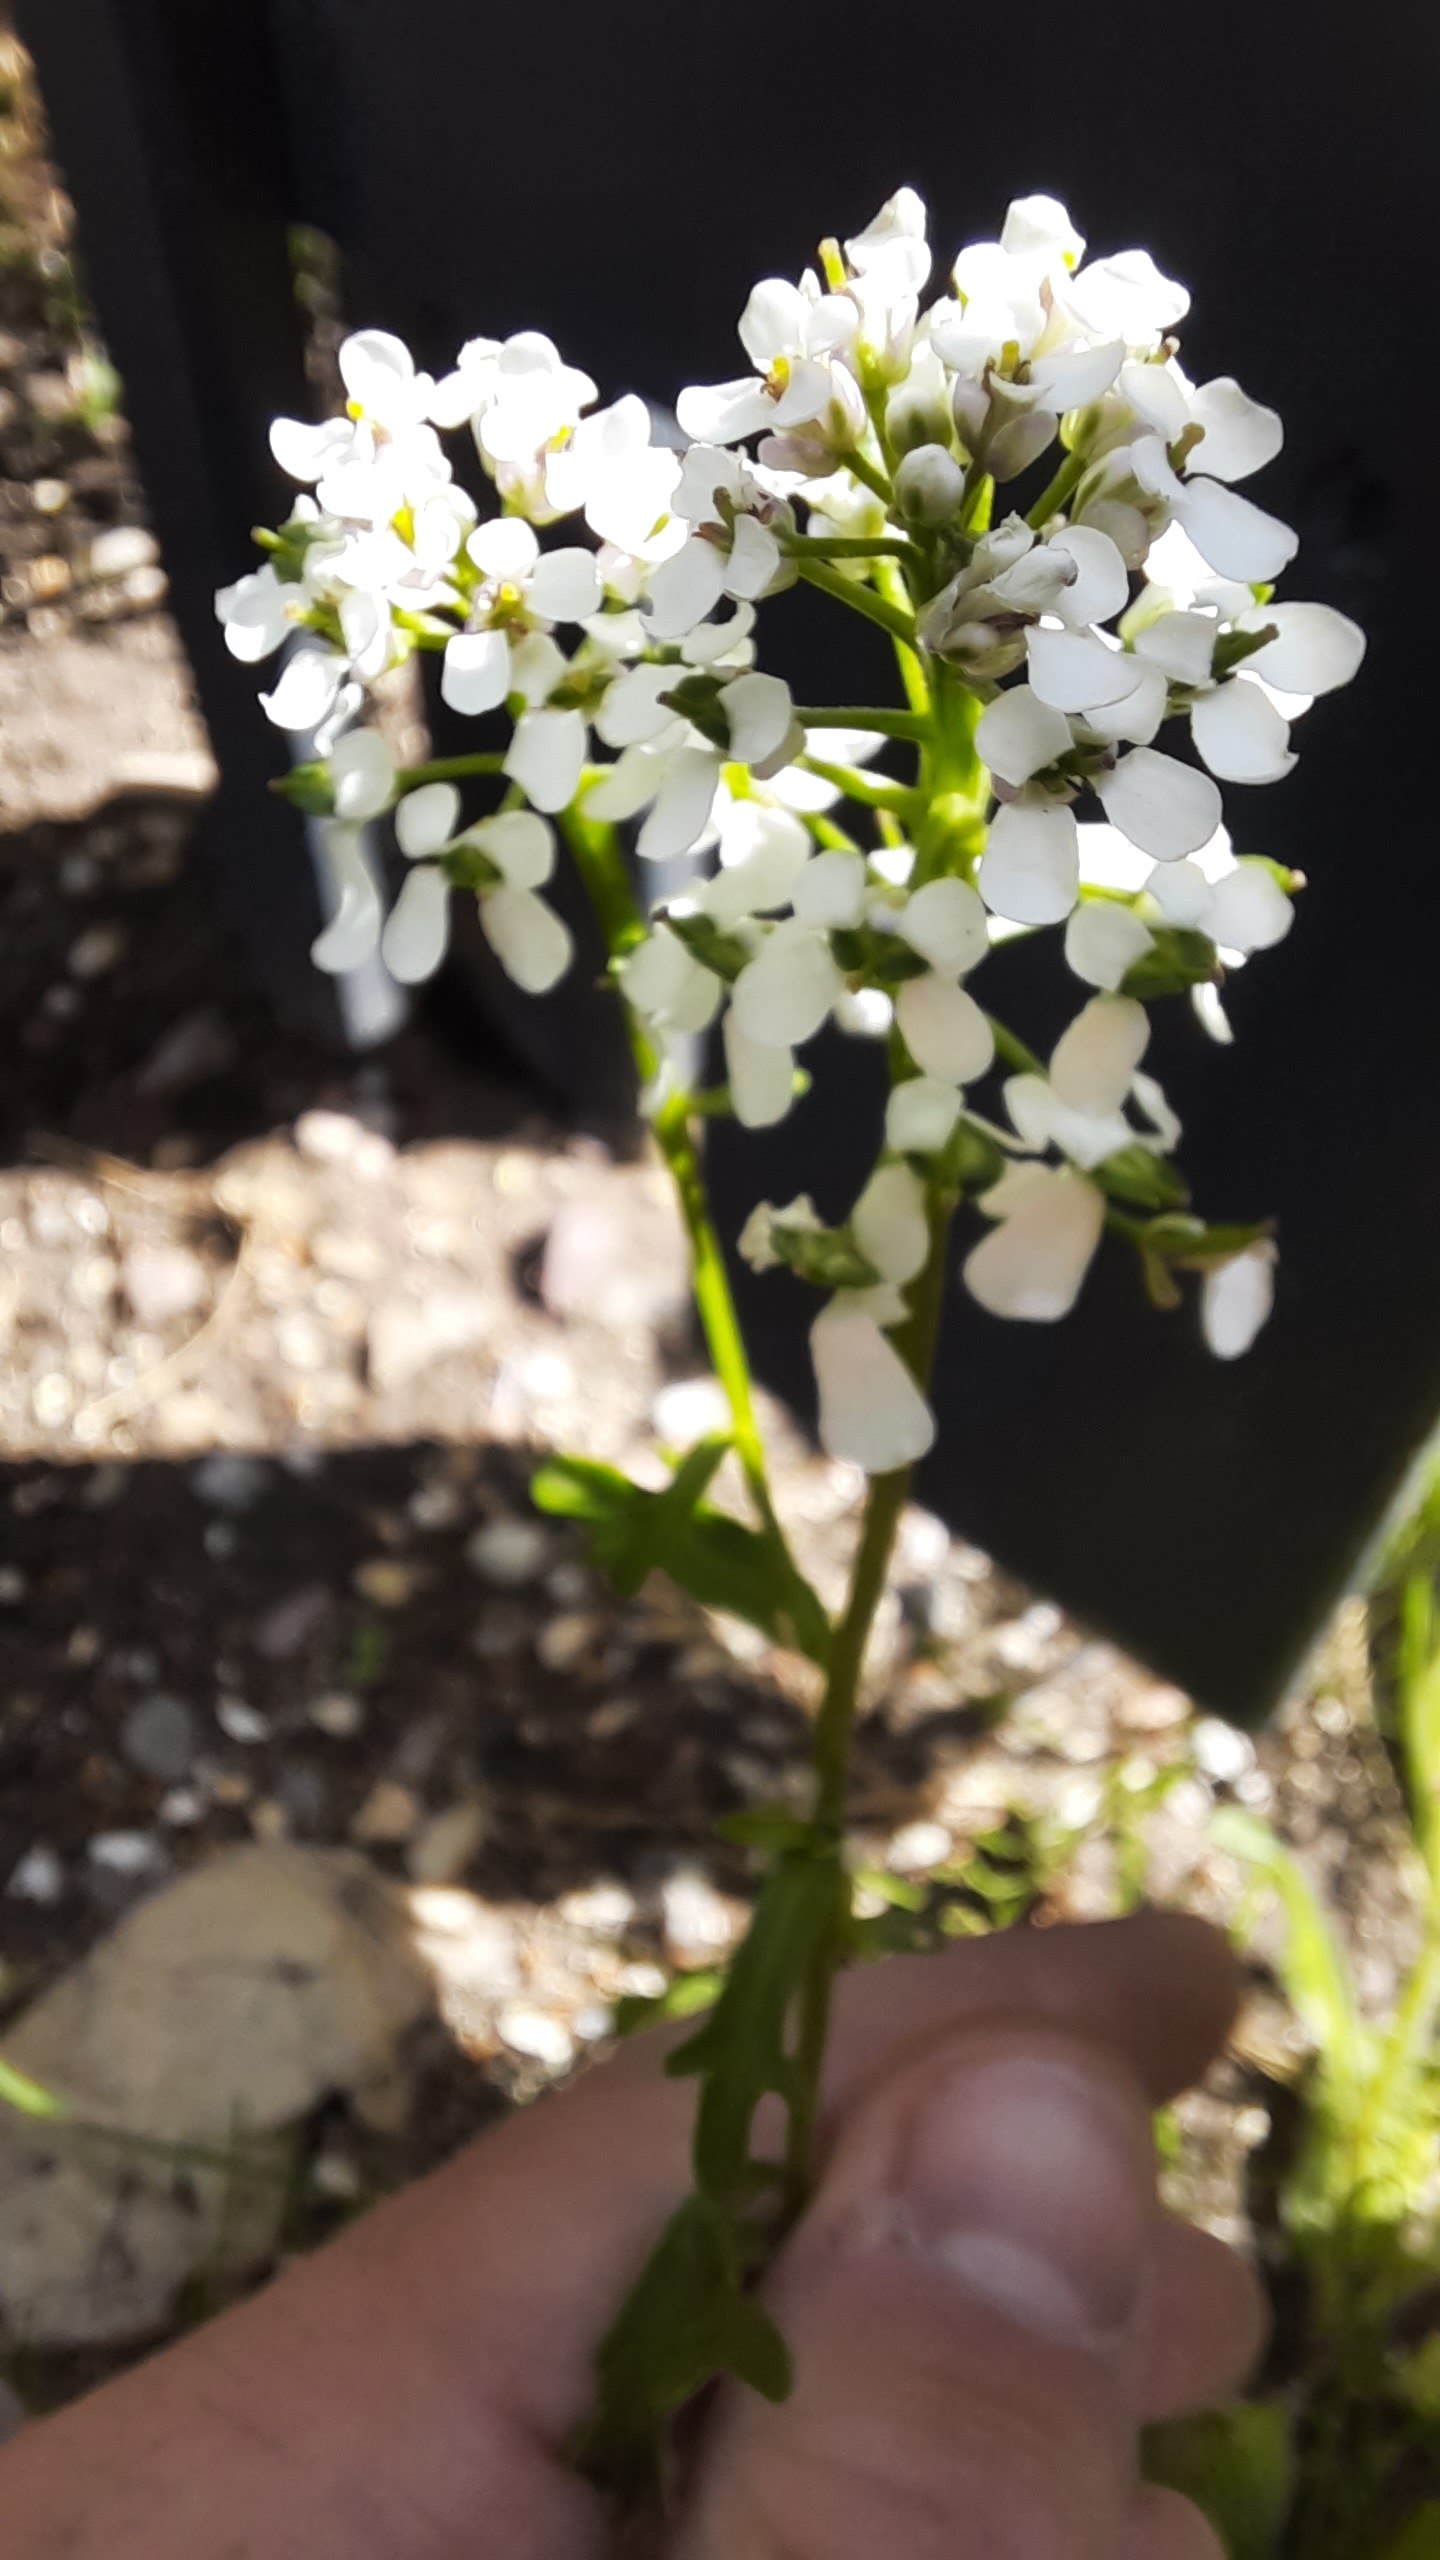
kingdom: Plantae
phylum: Tracheophyta
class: Magnoliopsida
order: Brassicales
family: Brassicaceae
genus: Iberis
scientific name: Iberis amara
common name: Hvid sløjfeblomst
